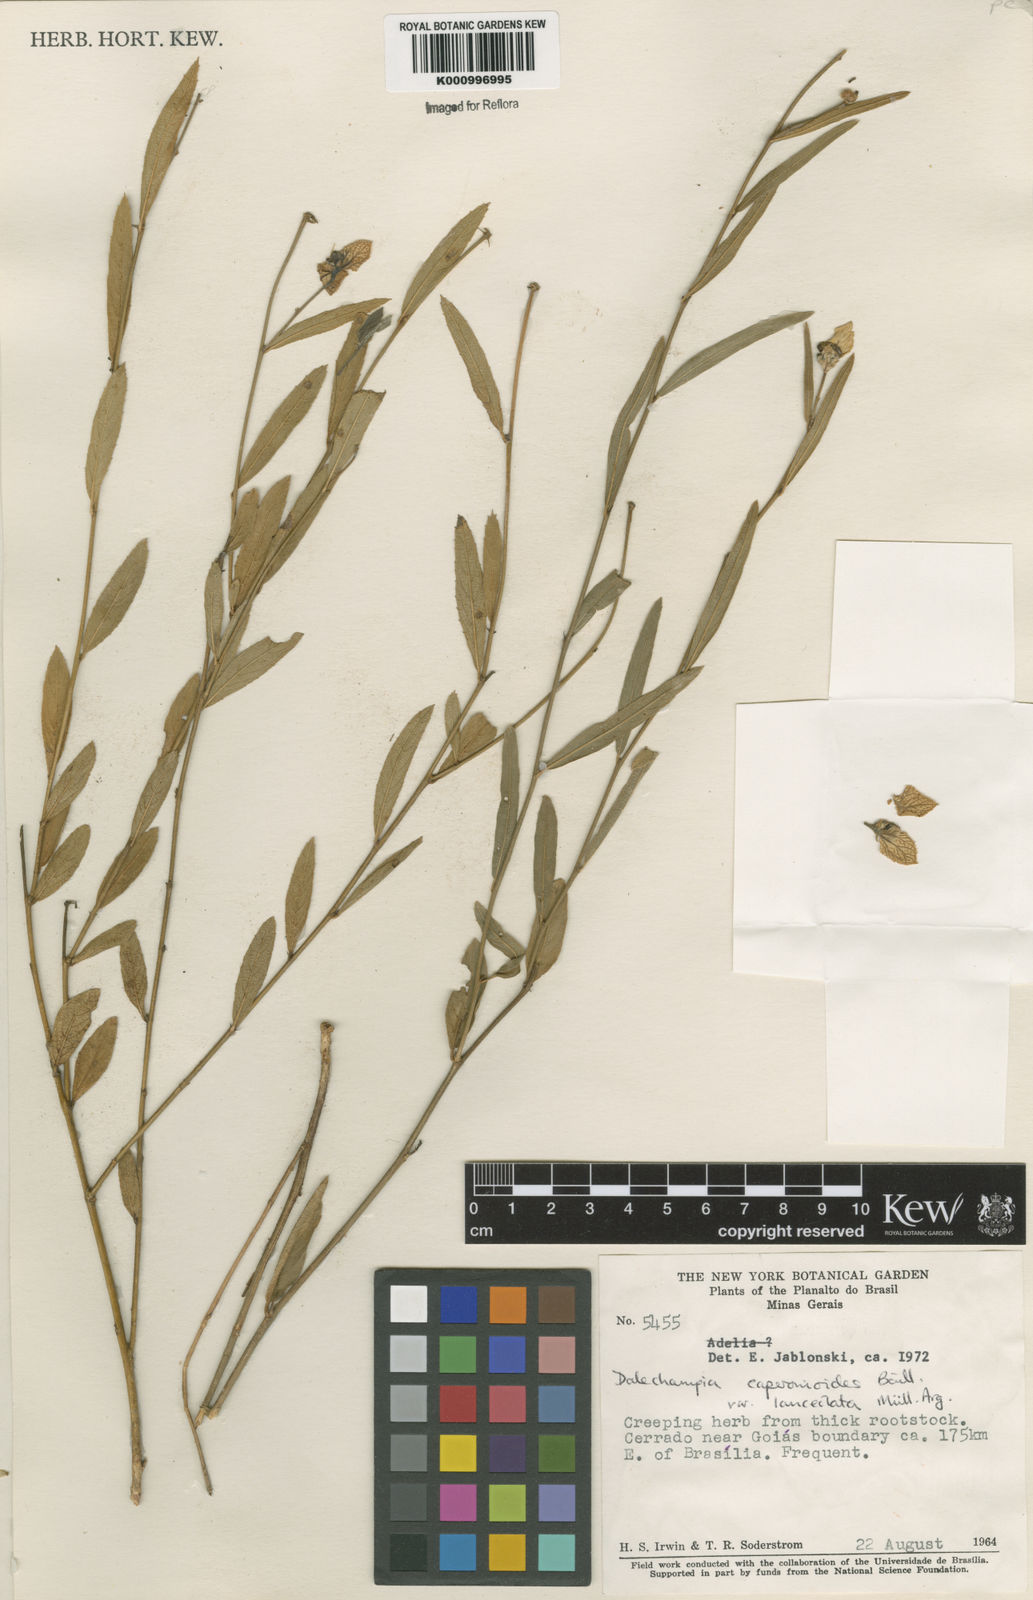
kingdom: Plantae
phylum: Tracheophyta
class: Magnoliopsida
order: Malpighiales
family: Euphorbiaceae
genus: Dalechampia
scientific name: Dalechampia caperonioides
